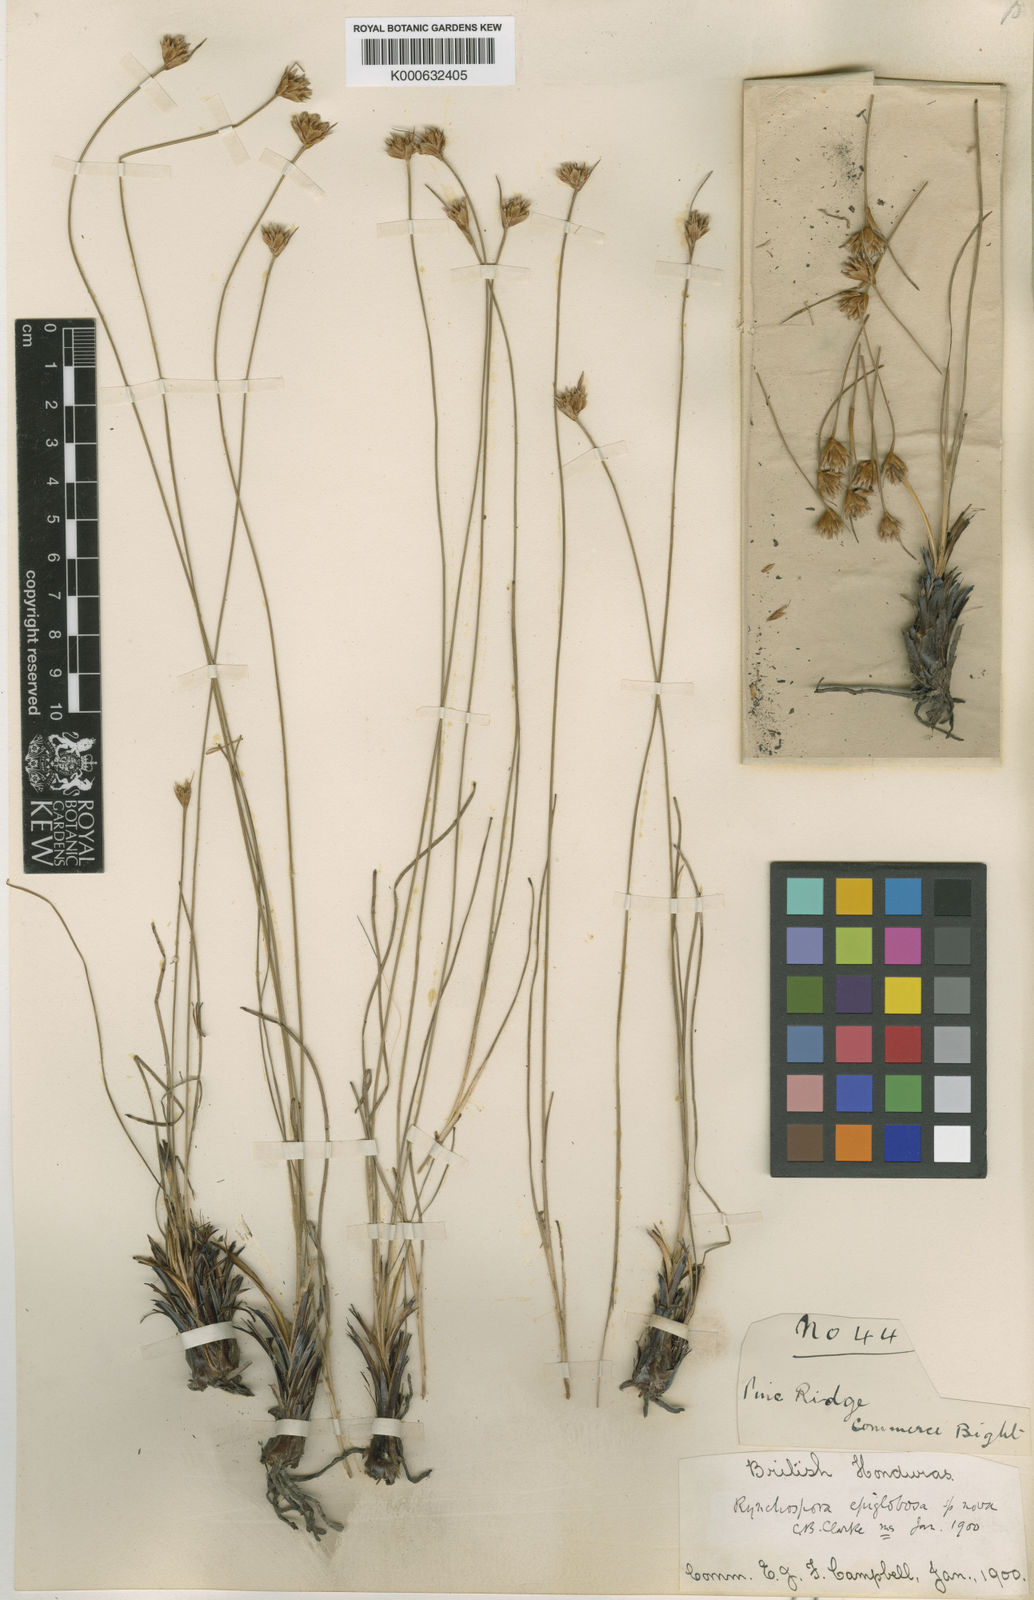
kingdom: Plantae
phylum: Tracheophyta
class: Liliopsida
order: Poales
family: Cyperaceae
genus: Rhynchospora
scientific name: Rhynchospora globosa
